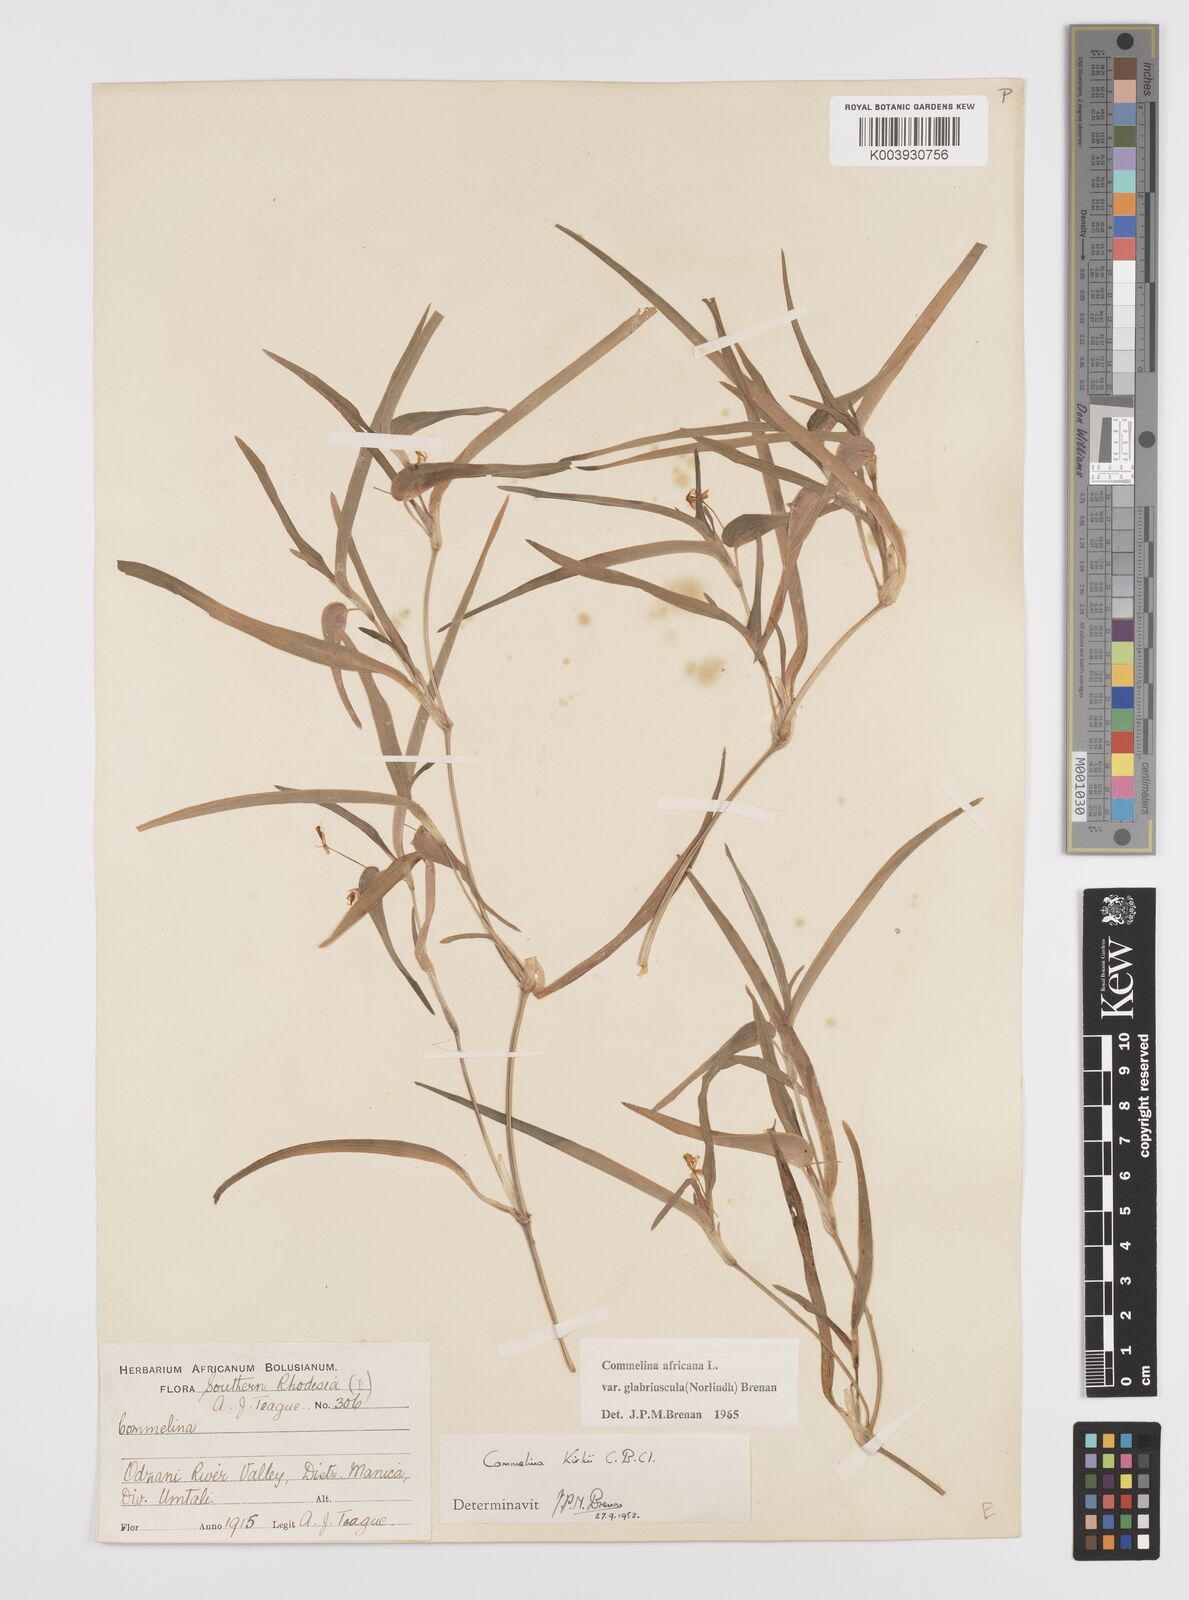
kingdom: Plantae
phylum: Tracheophyta
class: Liliopsida
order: Commelinales
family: Commelinaceae
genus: Commelina
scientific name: Commelina africana
